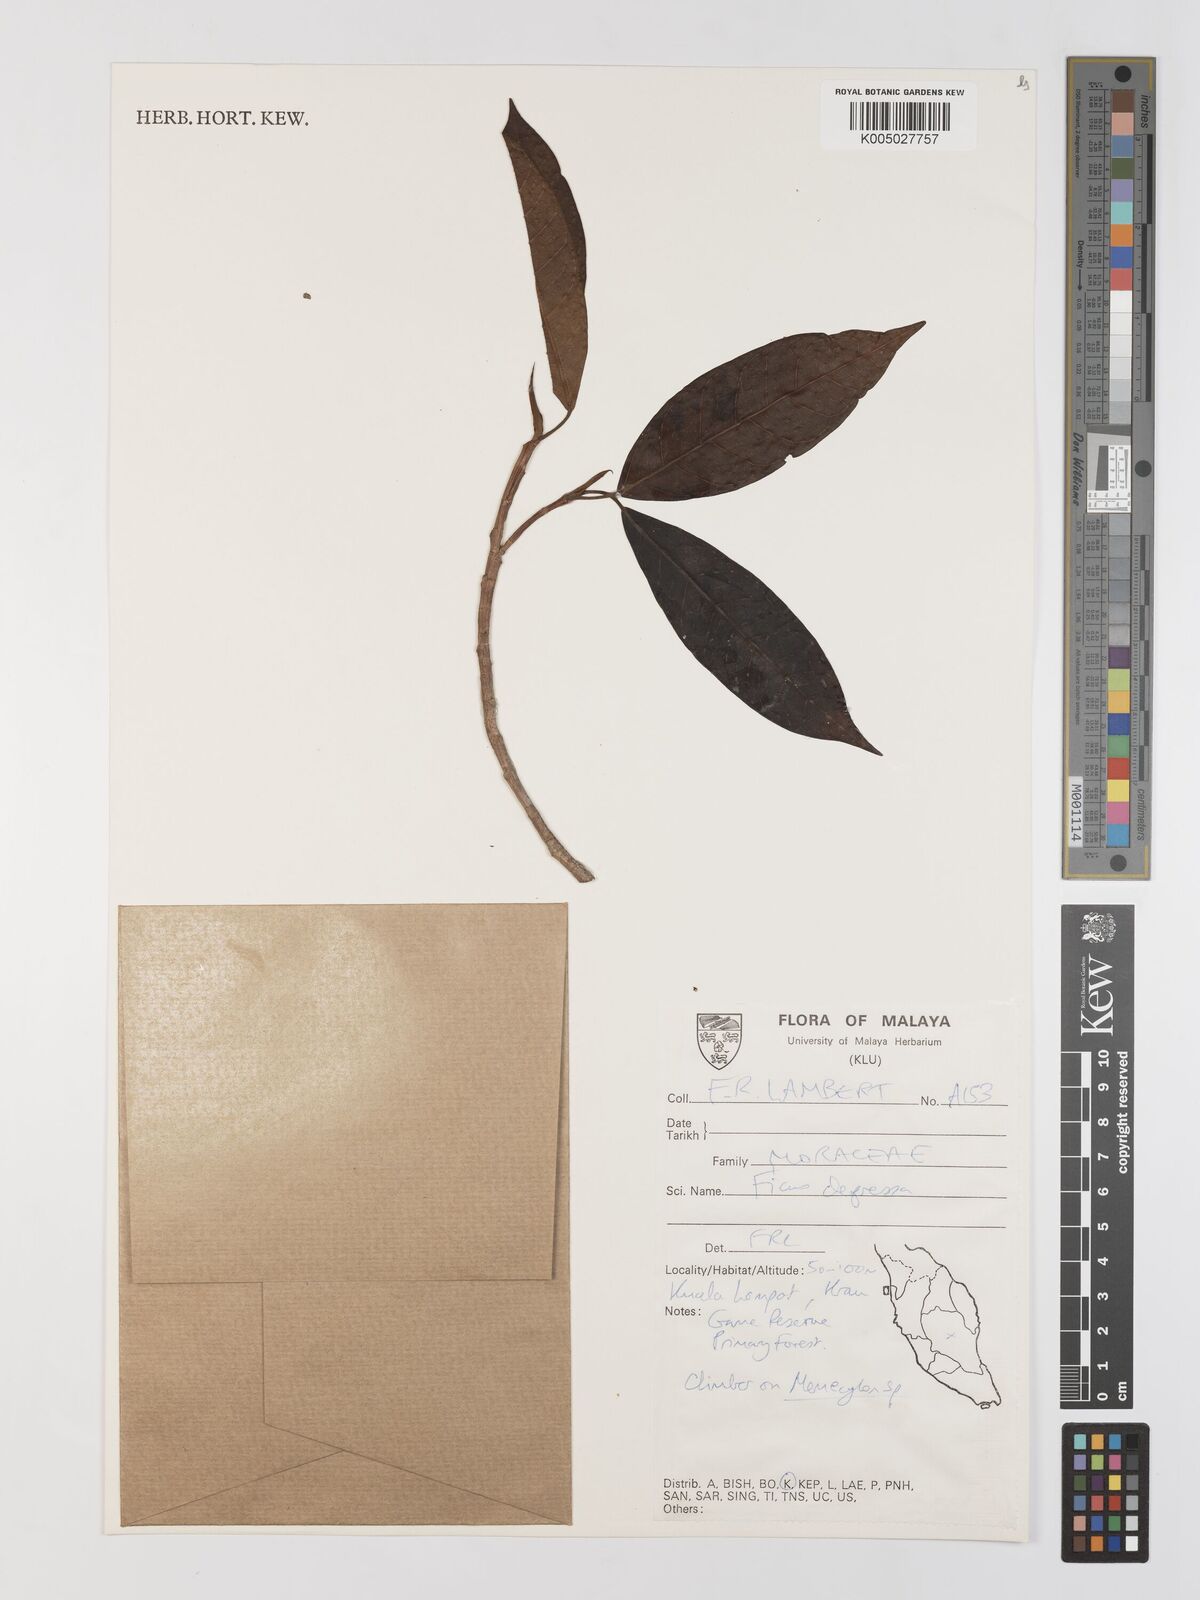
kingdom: Plantae
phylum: Tracheophyta
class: Magnoliopsida
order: Rosales
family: Moraceae
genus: Ficus
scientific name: Ficus
